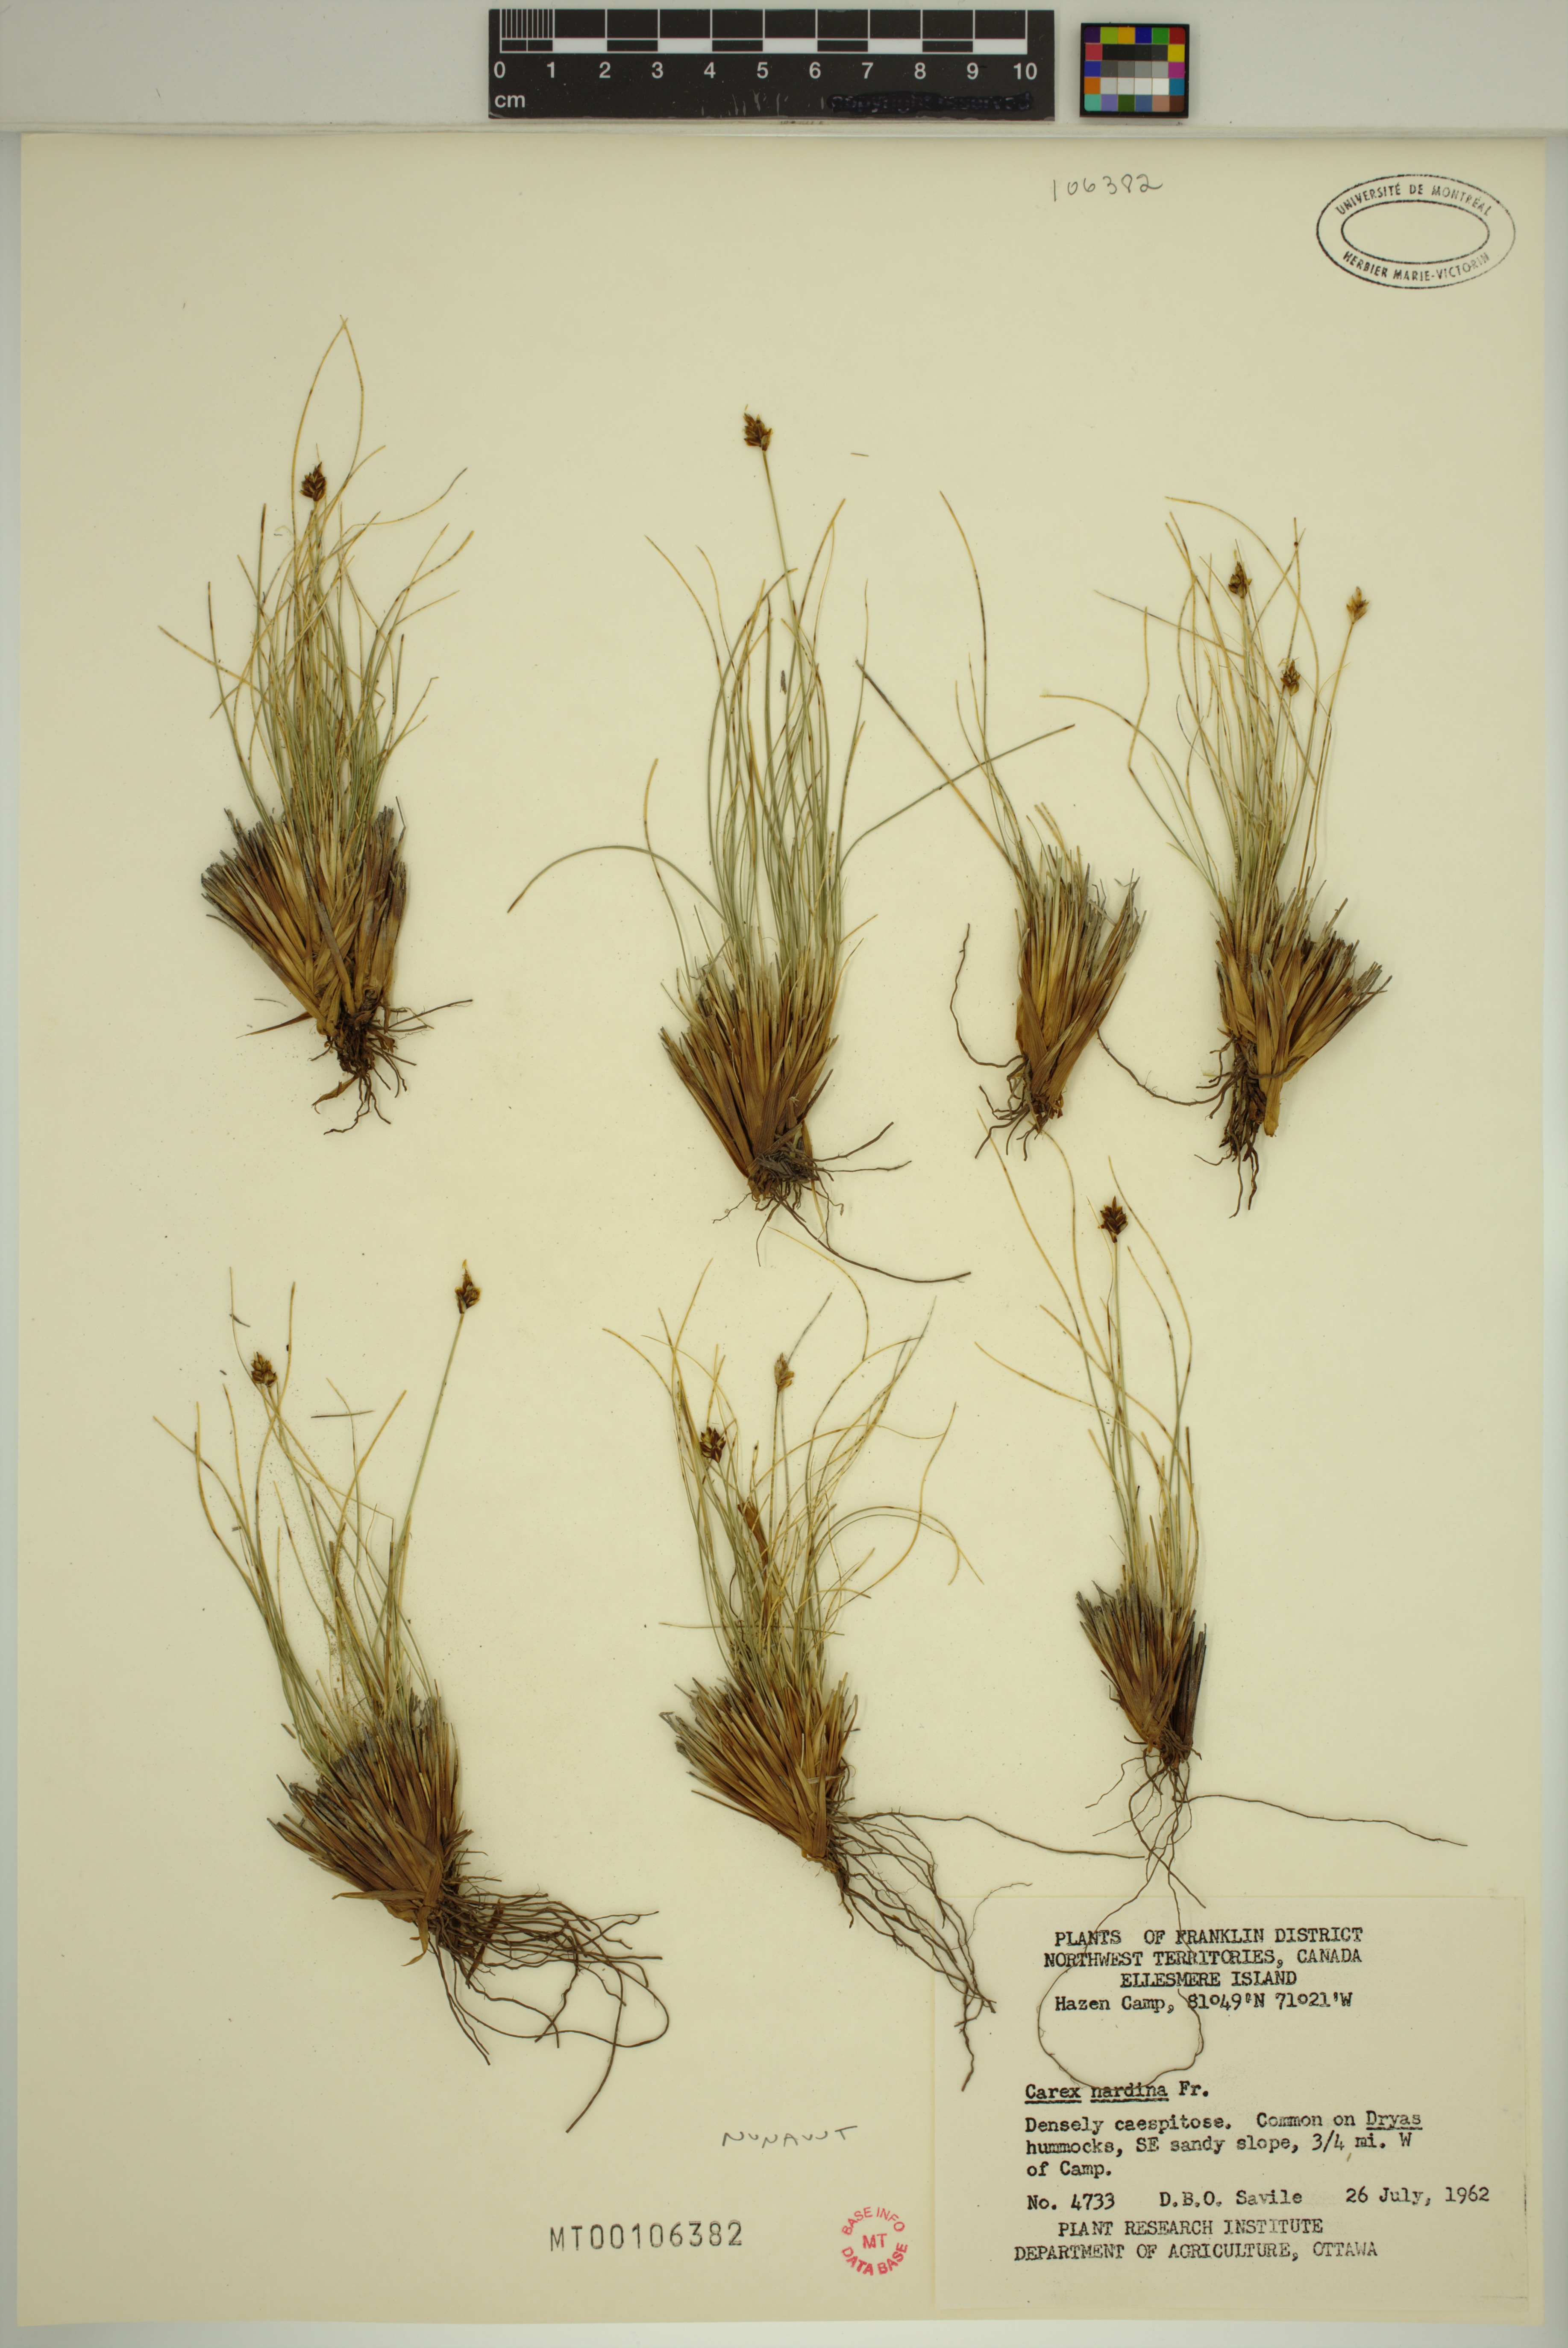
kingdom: Plantae
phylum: Tracheophyta
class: Liliopsida
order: Poales
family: Cyperaceae
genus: Carex
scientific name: Carex nardina
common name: Nard sedge
